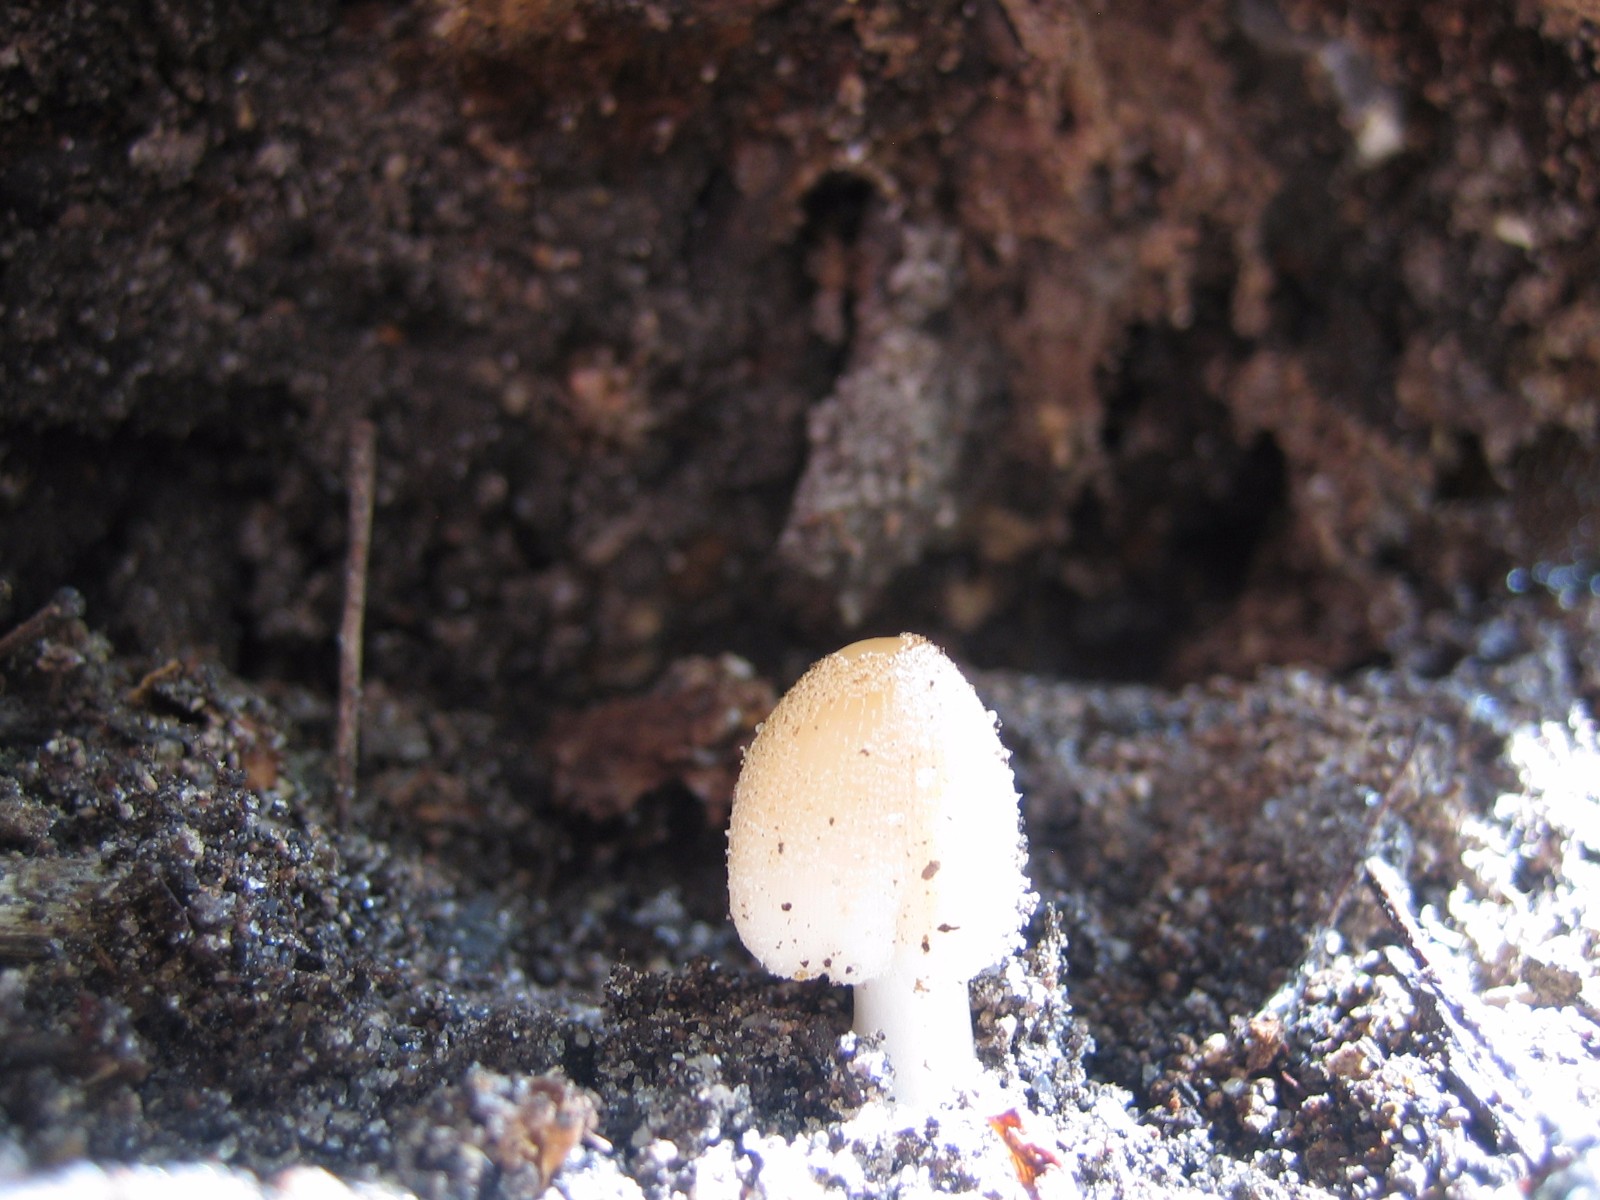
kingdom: Fungi
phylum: Basidiomycota
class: Agaricomycetes
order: Agaricales
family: Psathyrellaceae
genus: Coprinellus
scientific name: Coprinellus micaceus
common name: glimmer-blækhat
